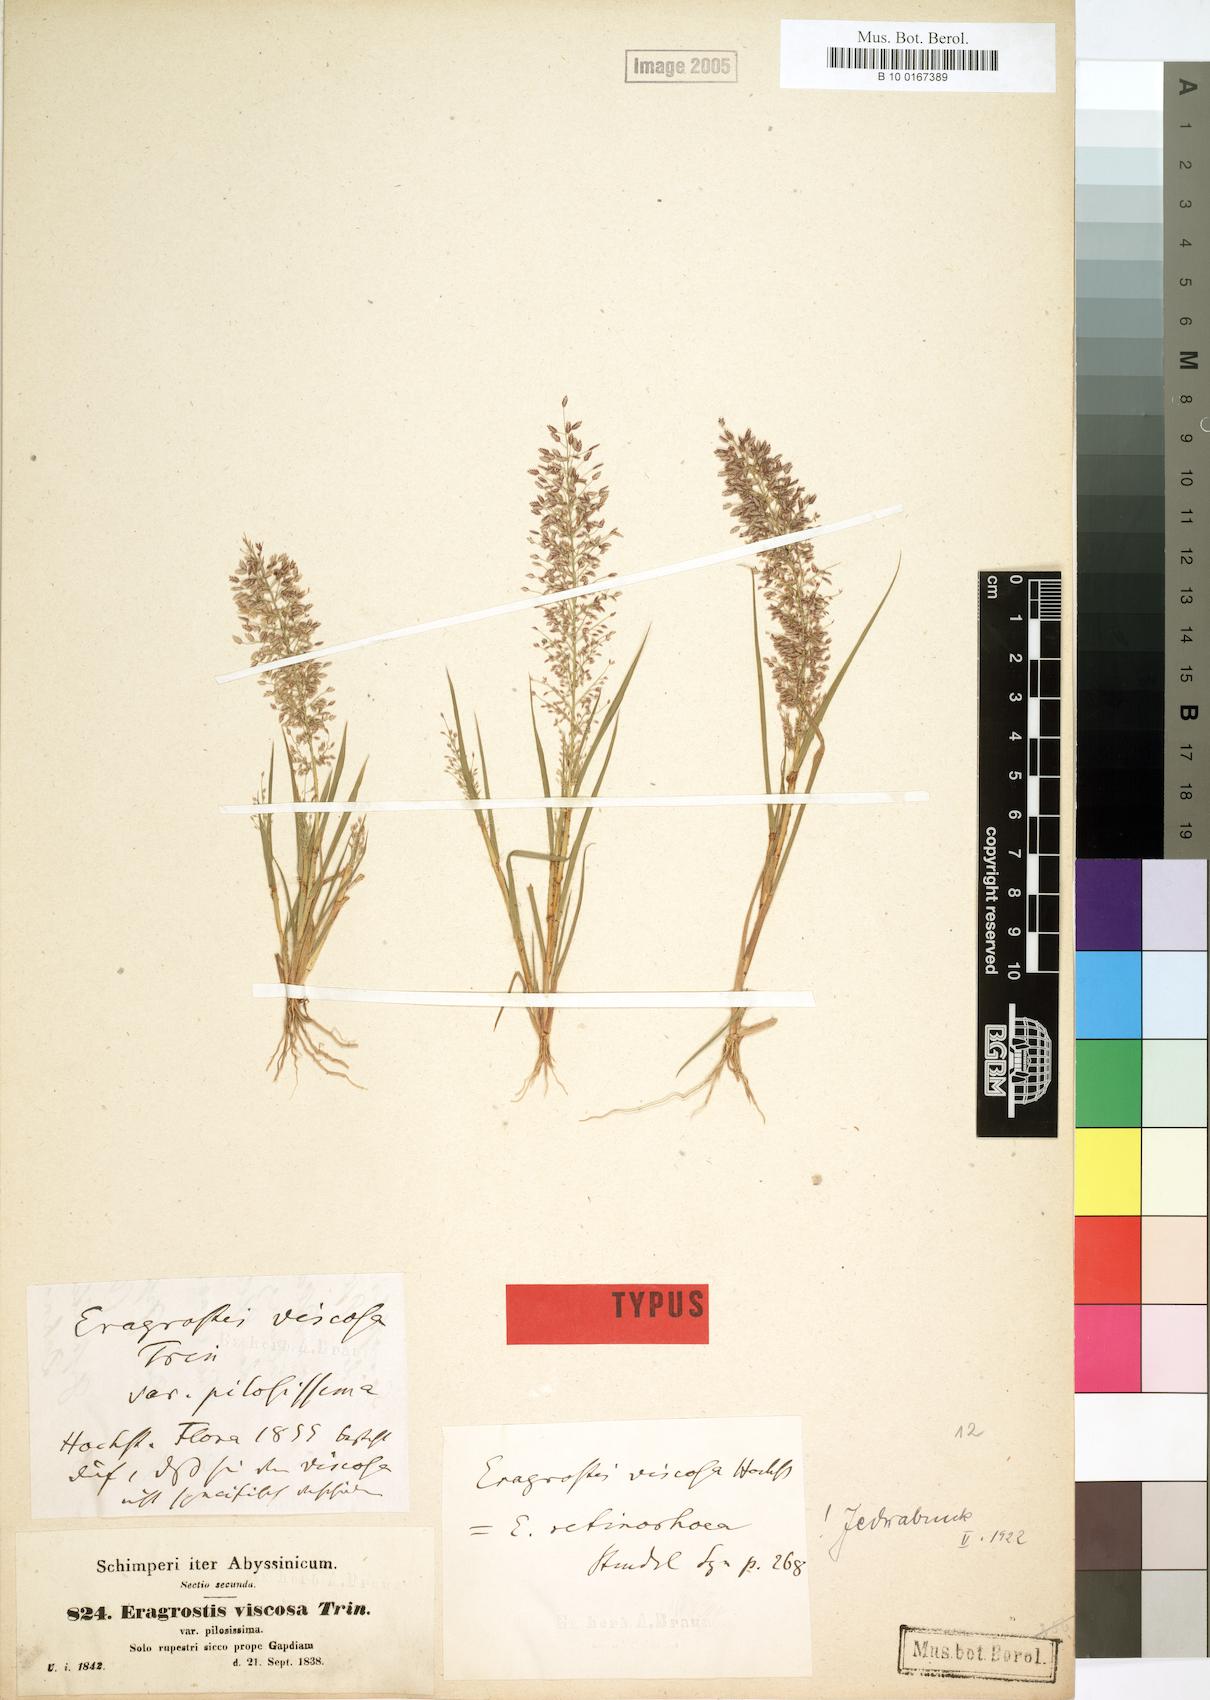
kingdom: Plantae
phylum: Tracheophyta
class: Liliopsida
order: Poales
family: Poaceae
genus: Eragrostis
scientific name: Eragrostis viscosa
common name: Sticky love grass
